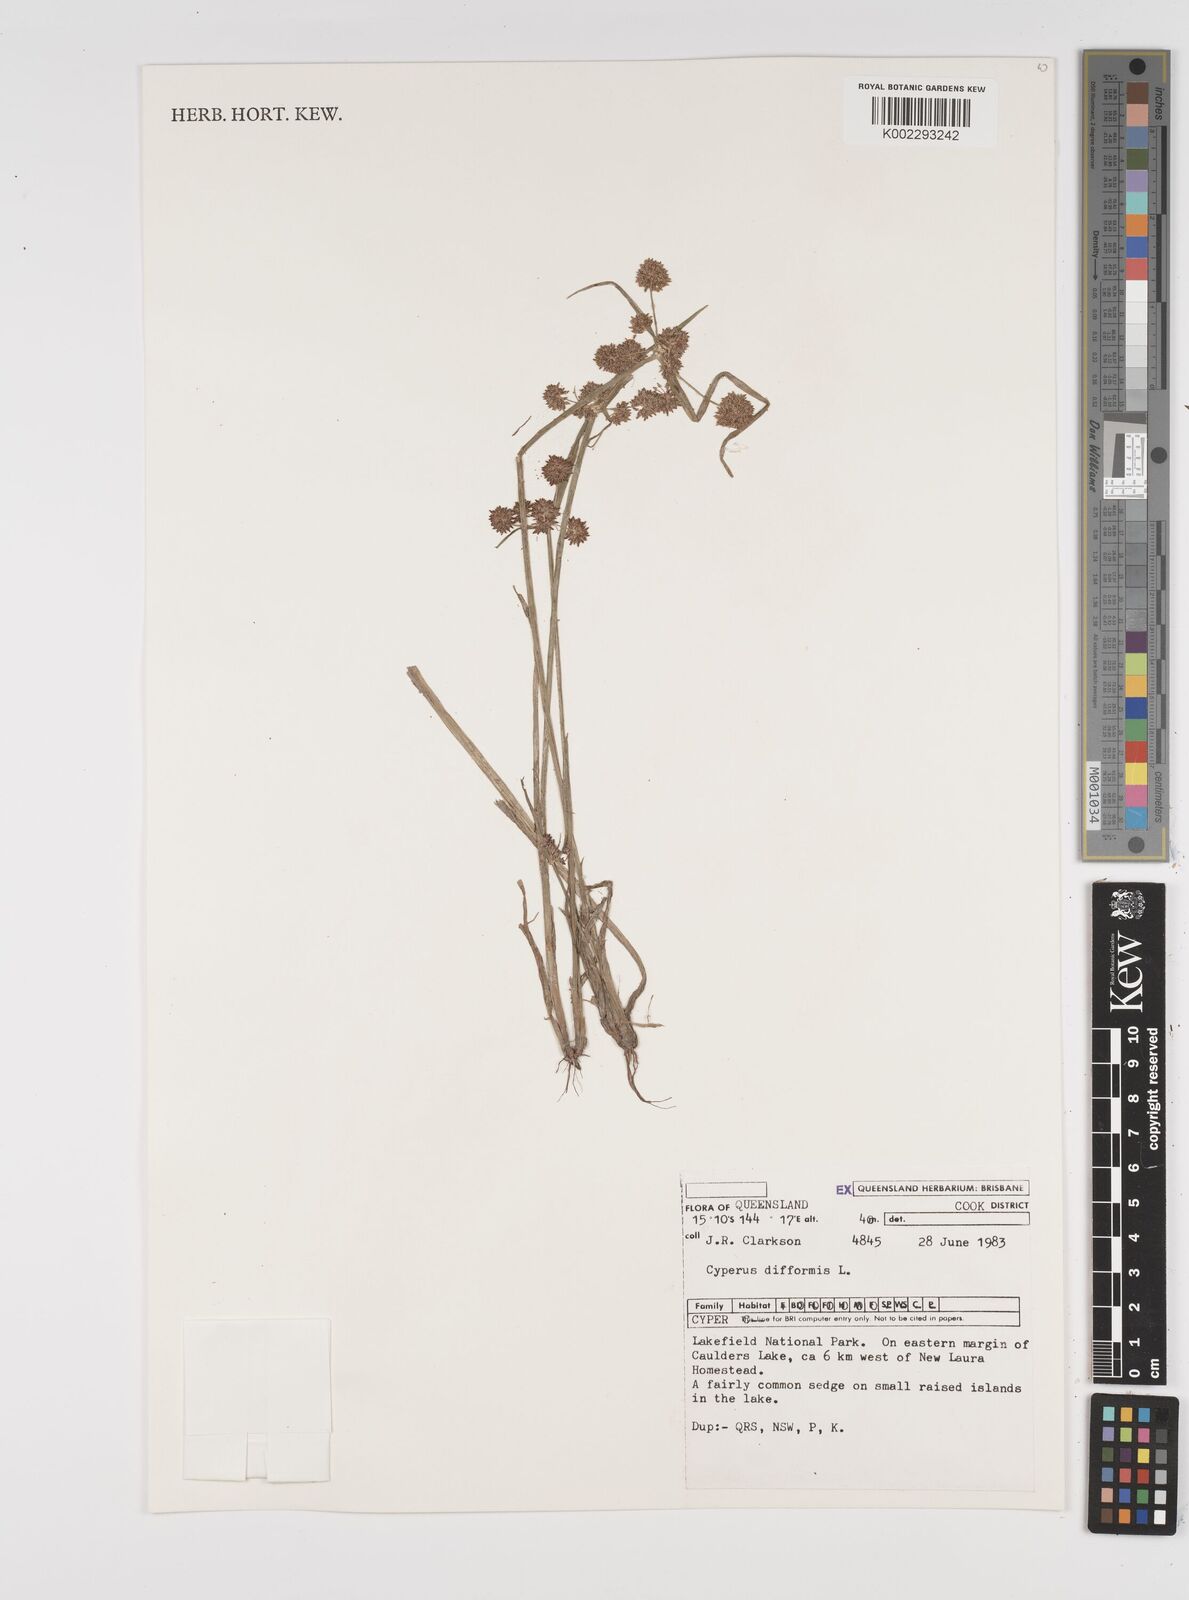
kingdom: Plantae
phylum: Tracheophyta
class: Liliopsida
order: Poales
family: Cyperaceae
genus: Cyperus
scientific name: Cyperus difformis
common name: Variable flatsedge
